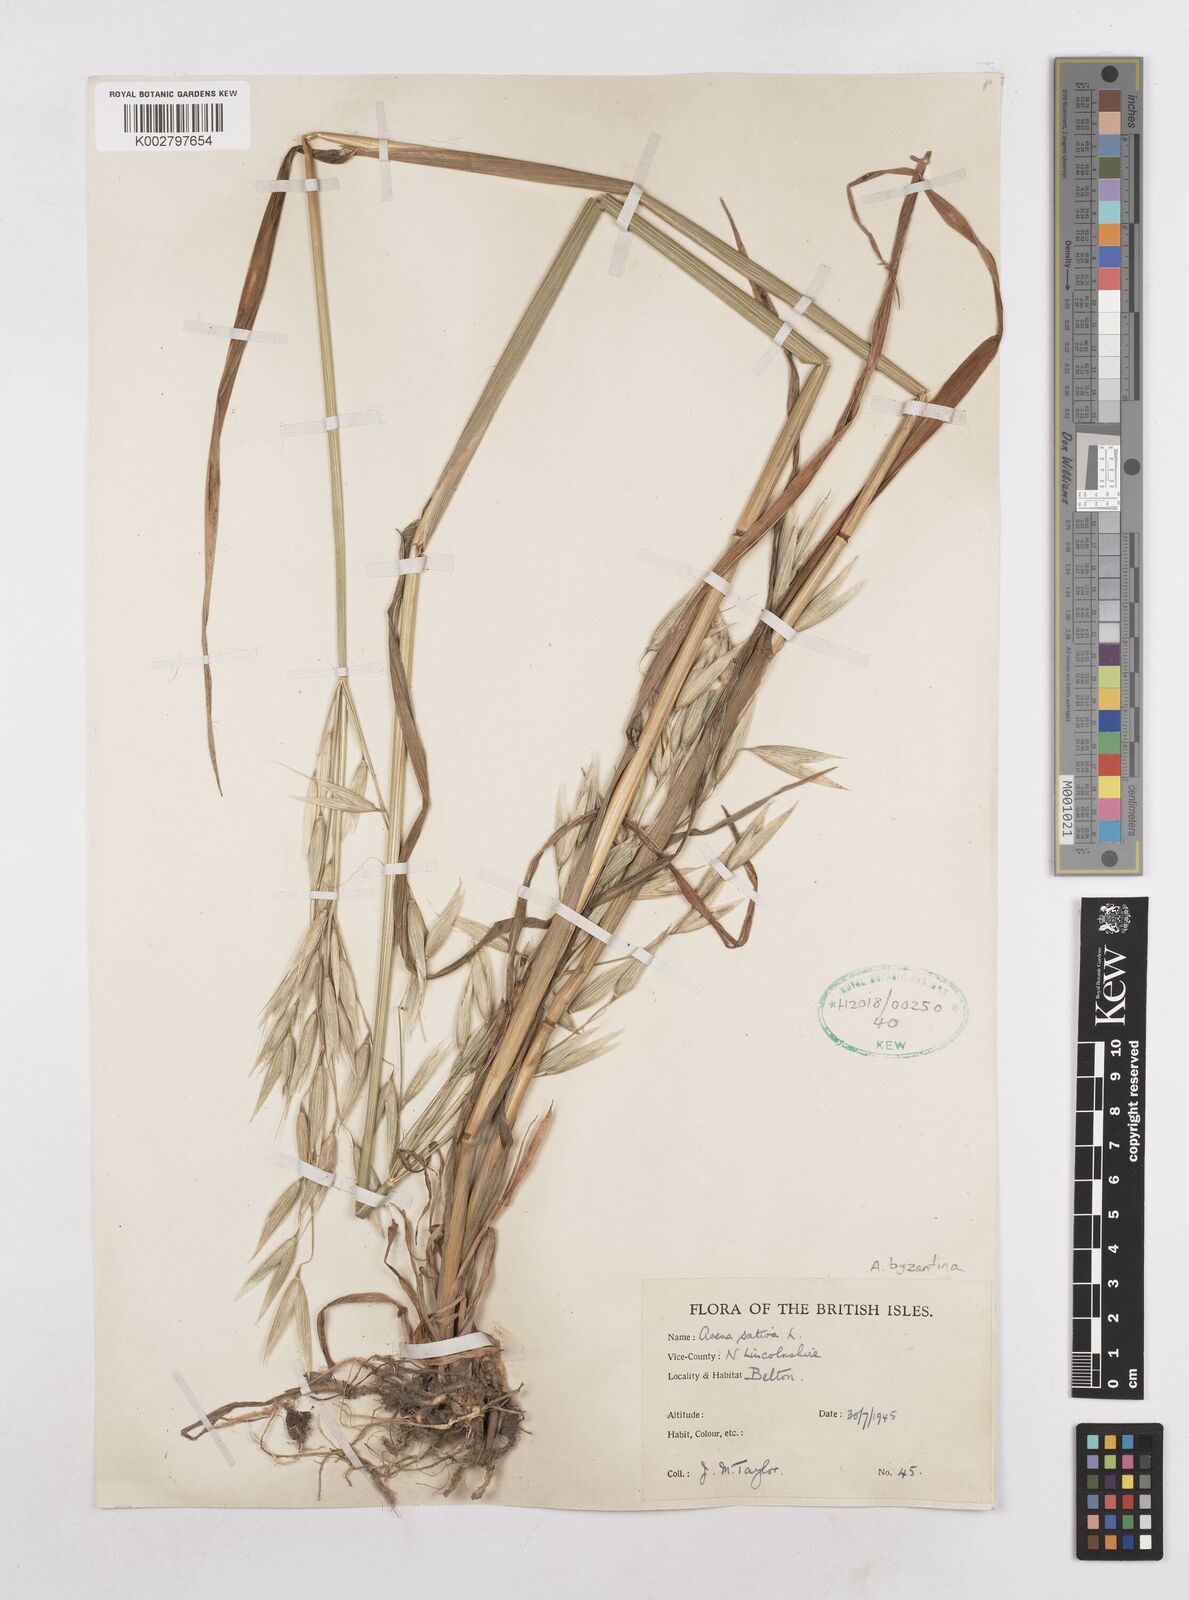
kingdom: Plantae
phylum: Tracheophyta
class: Liliopsida
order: Poales
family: Poaceae
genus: Avena
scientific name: Avena byzantina
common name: Algerian oat
